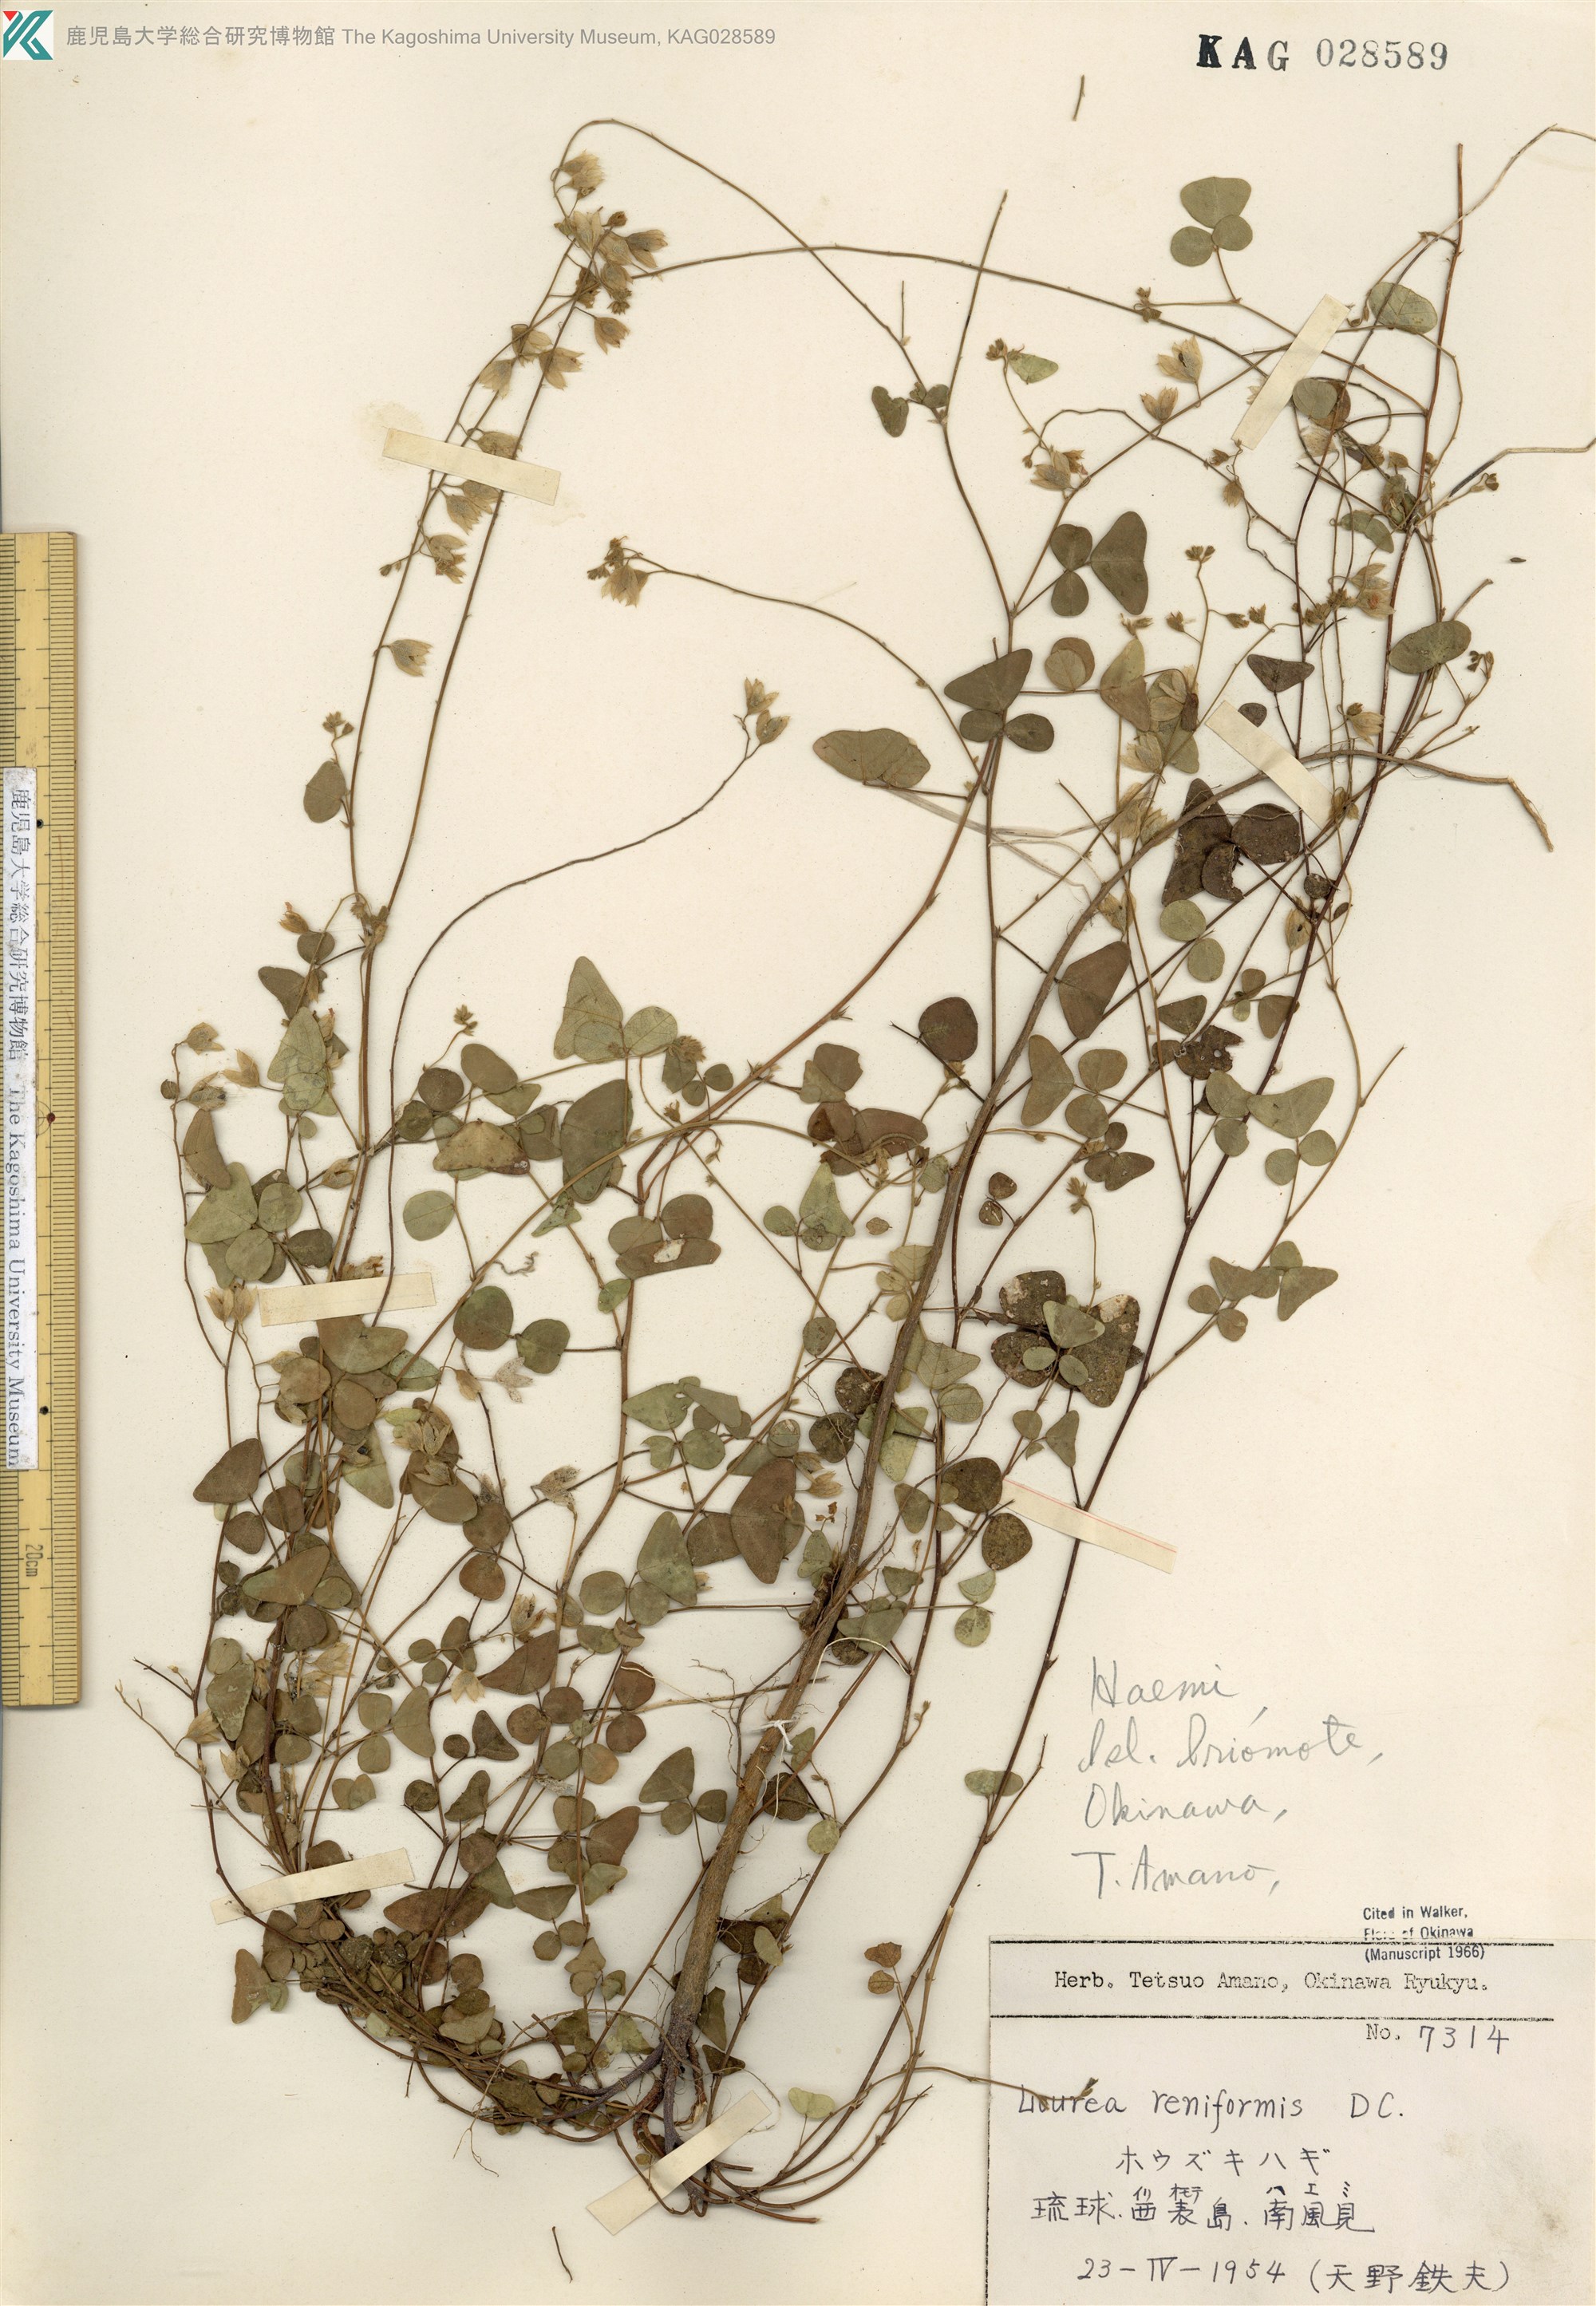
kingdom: Plantae
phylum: Tracheophyta
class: Magnoliopsida
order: Fabales
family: Fabaceae
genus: Christia
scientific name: Christia obcordata
